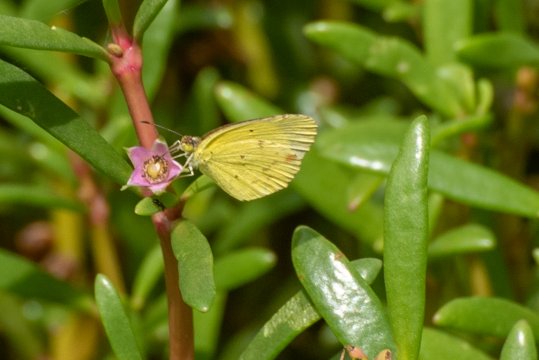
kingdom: Animalia
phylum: Arthropoda
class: Insecta
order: Lepidoptera
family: Pieridae
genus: Pyrisitia
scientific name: Pyrisitia lisa
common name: Little Yellow
